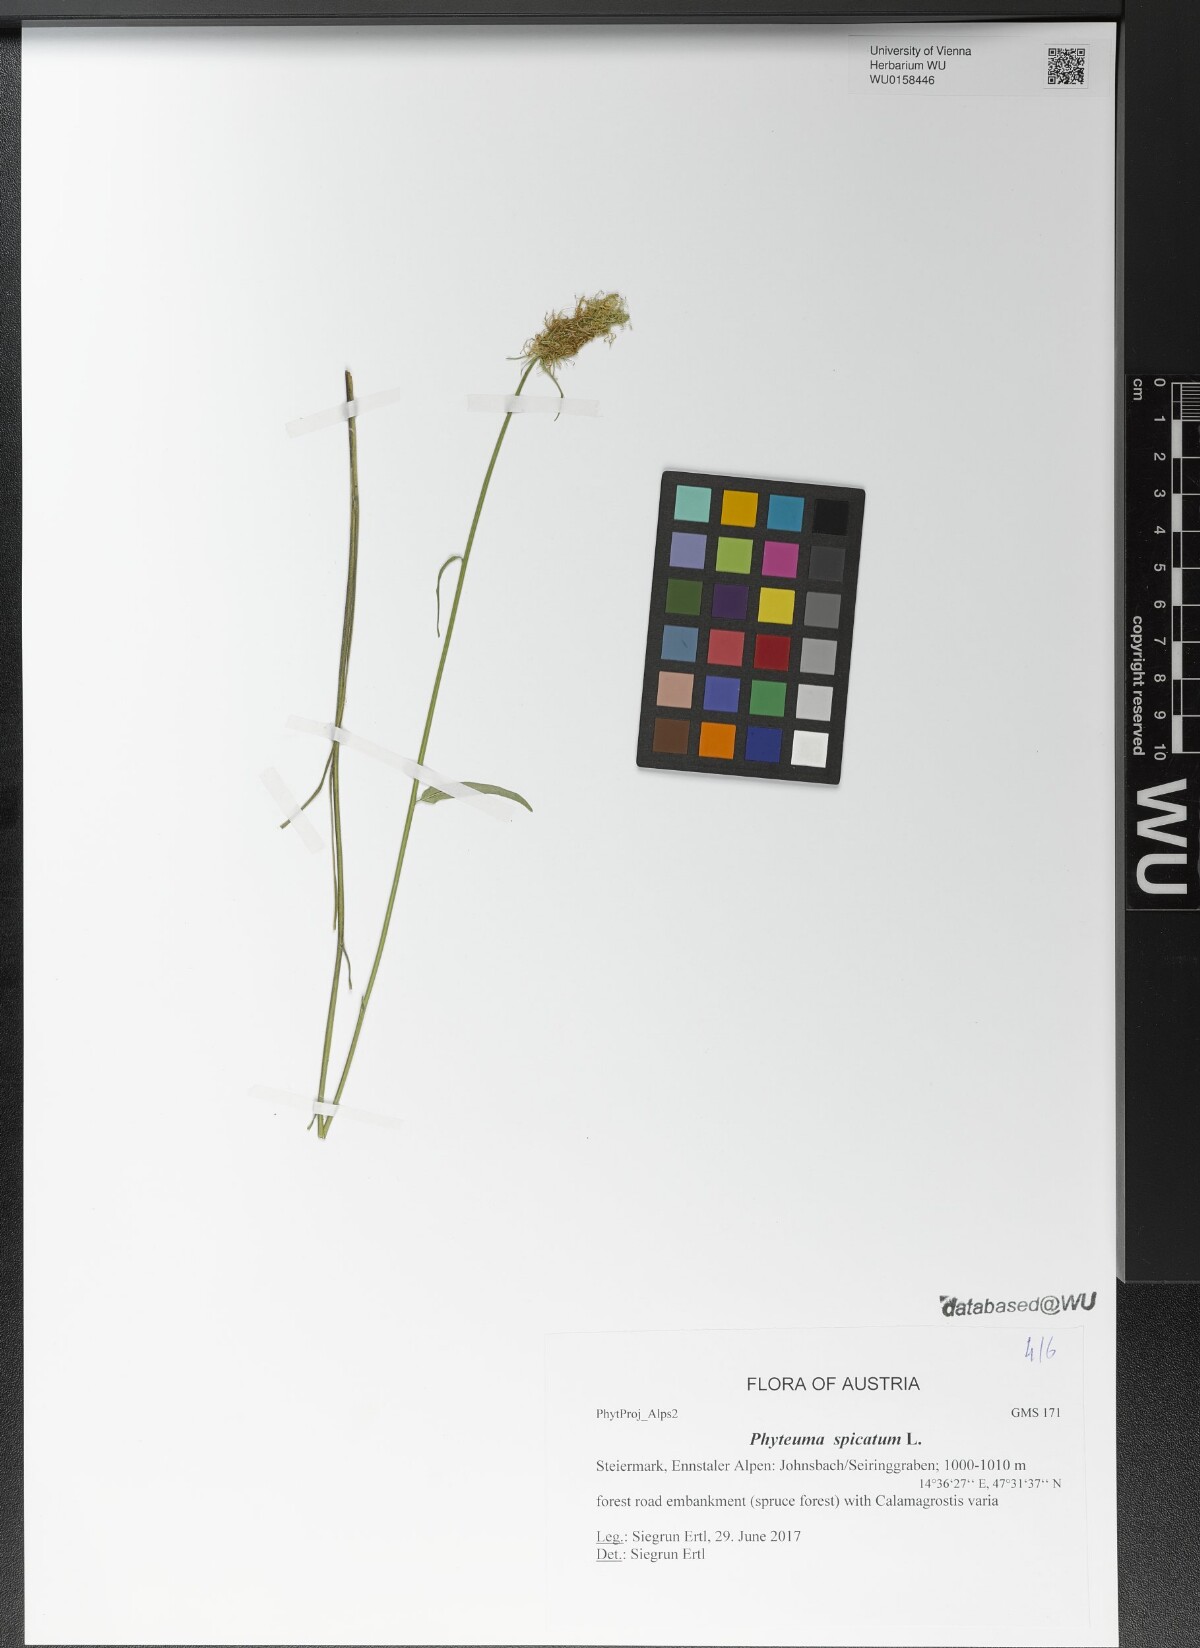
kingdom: Plantae
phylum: Tracheophyta
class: Magnoliopsida
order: Asterales
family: Campanulaceae
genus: Phyteuma
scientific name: Phyteuma spicatum
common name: Spiked rampion
